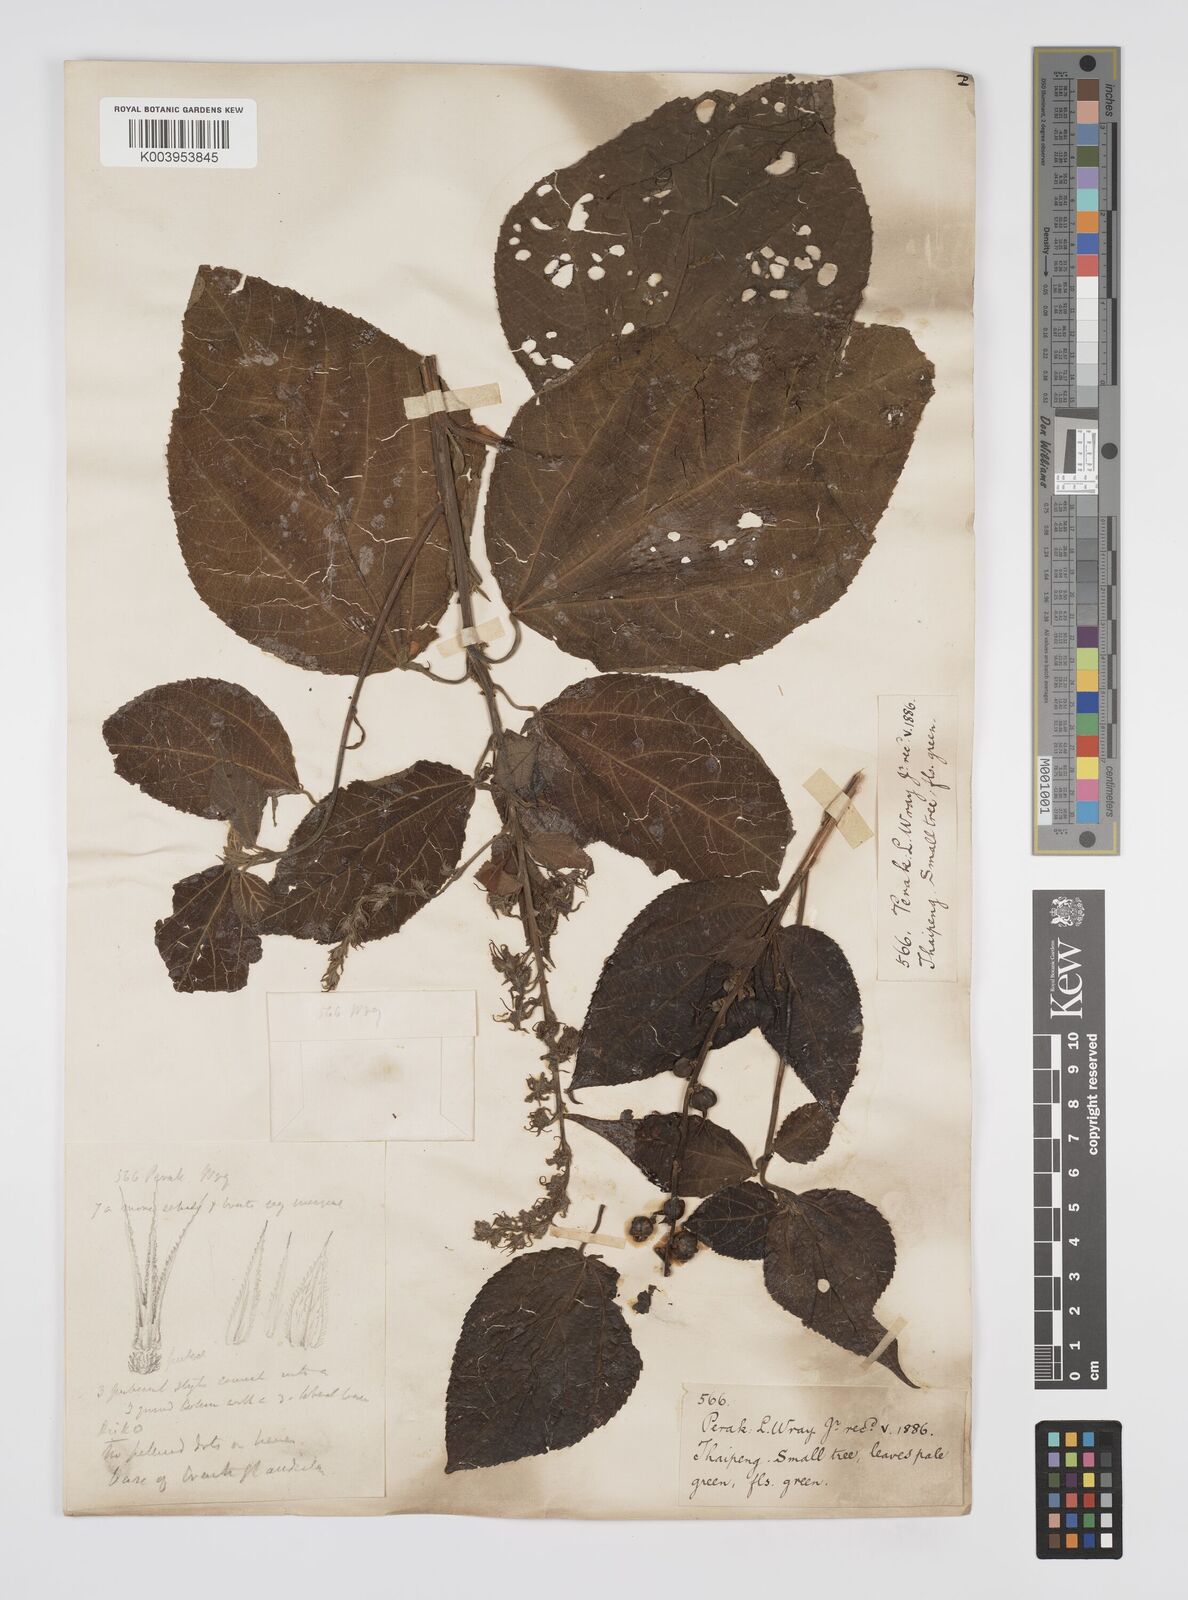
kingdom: Plantae
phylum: Tracheophyta
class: Magnoliopsida
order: Malpighiales
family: Euphorbiaceae
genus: Alchornea
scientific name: Alchornea tiliifolia
